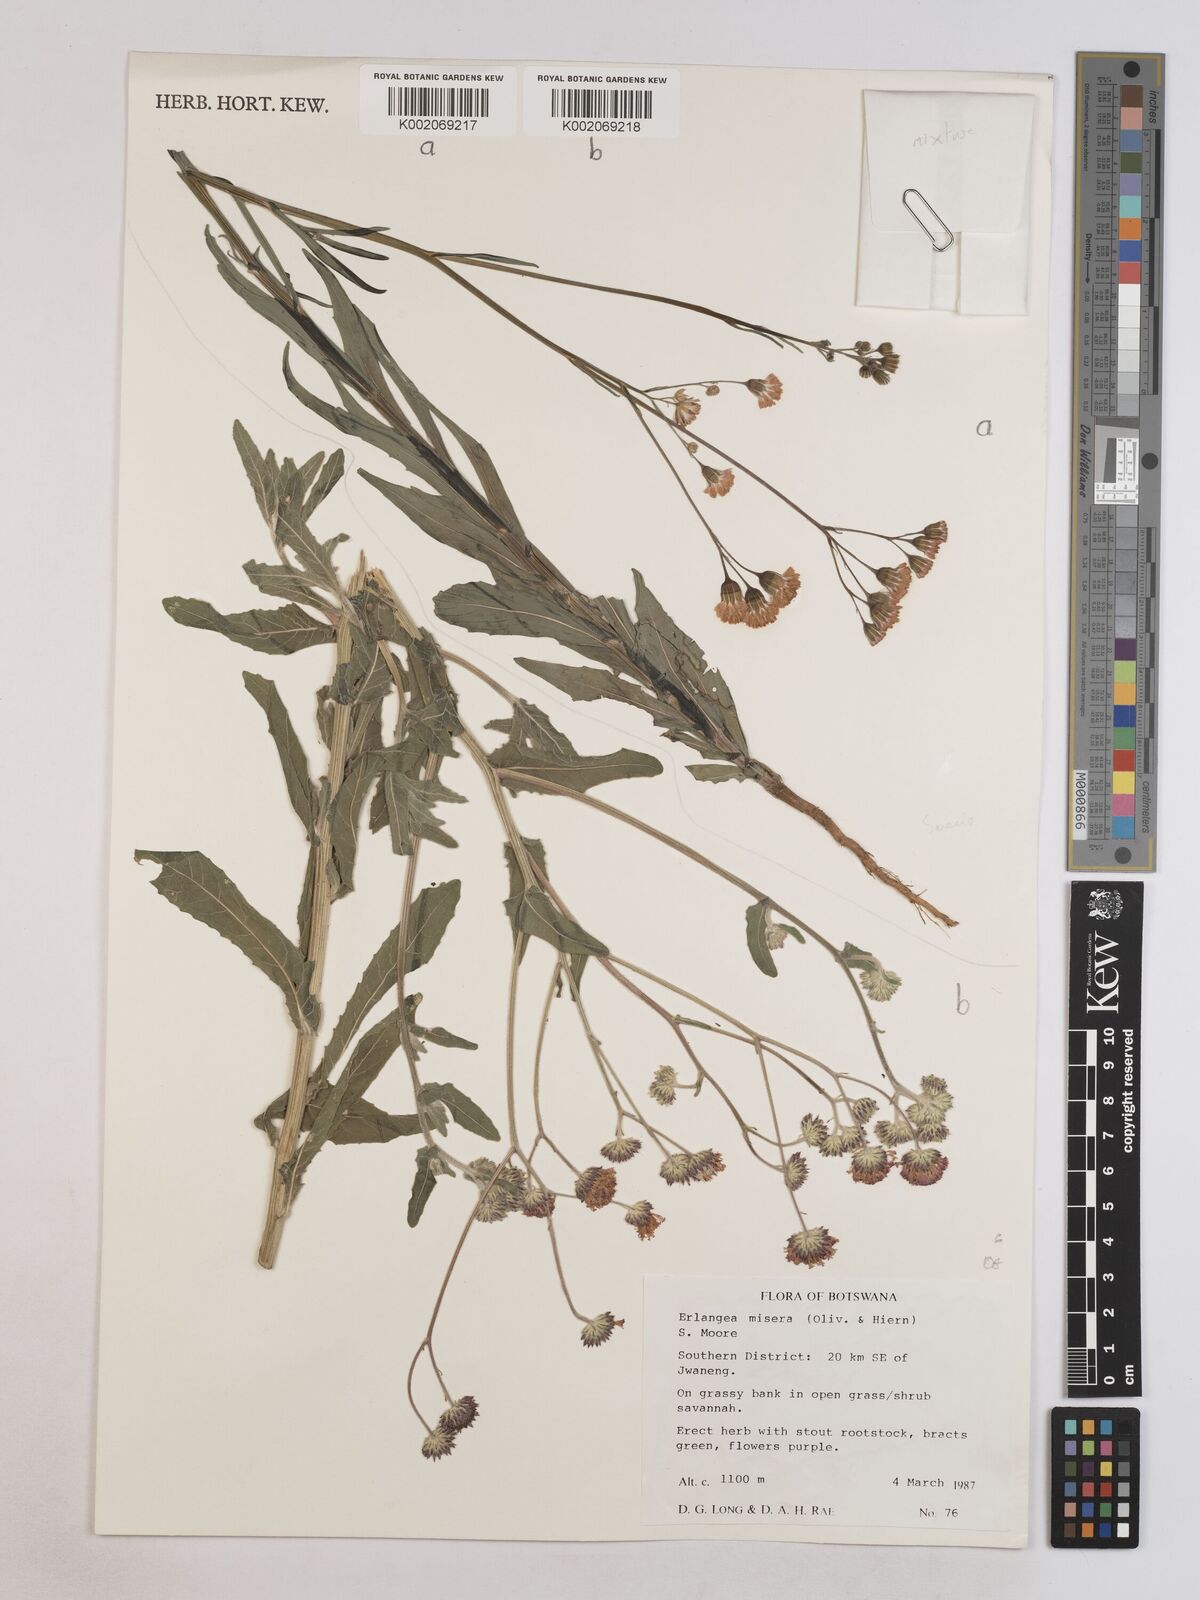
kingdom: Plantae
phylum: Tracheophyta
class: Magnoliopsida
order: Asterales
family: Asteraceae
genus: Erlangea
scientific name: Erlangea misera
